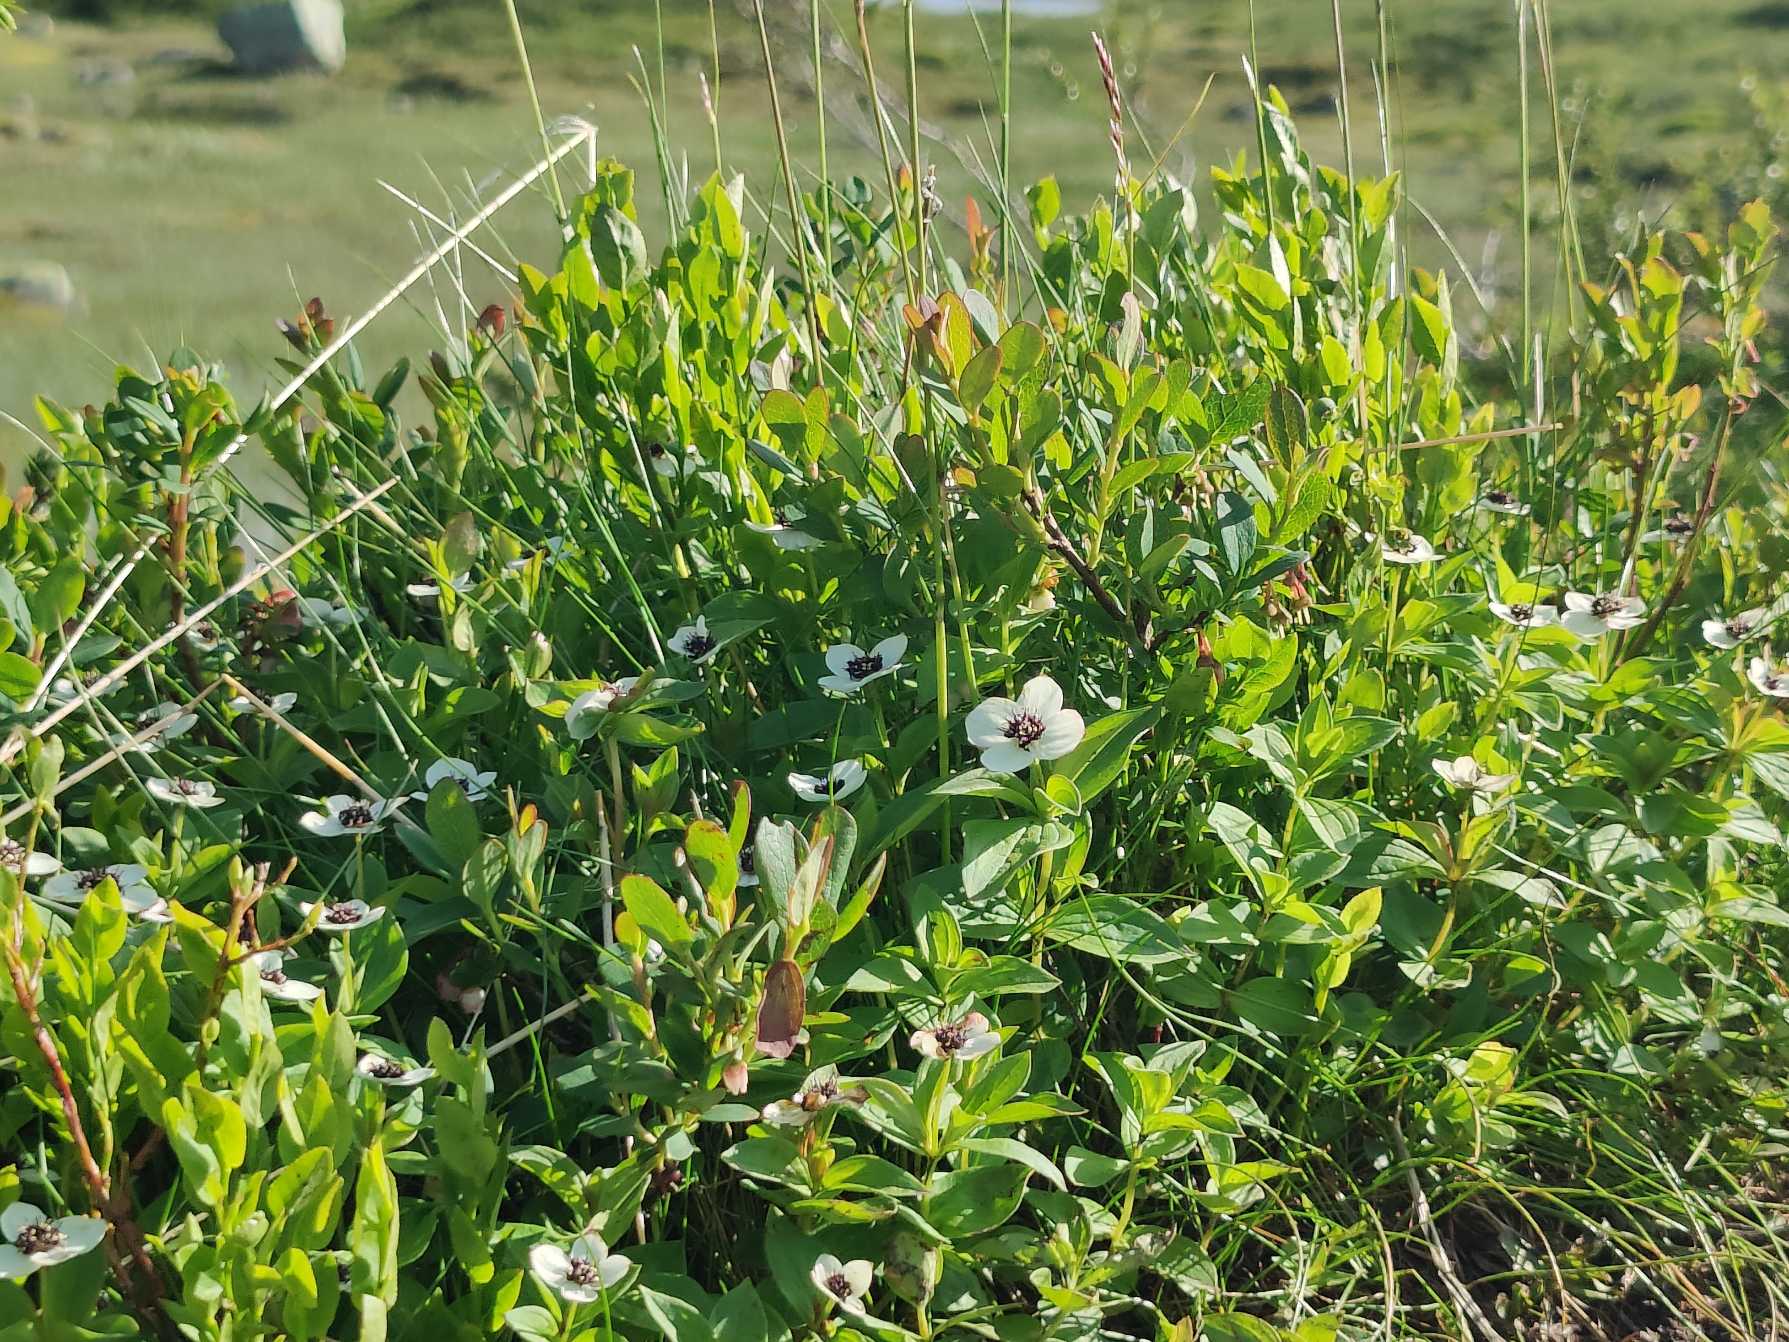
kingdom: Plantae
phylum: Tracheophyta
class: Magnoliopsida
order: Cornales
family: Cornaceae
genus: Cornus
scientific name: Cornus suecica
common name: Hønsebær
